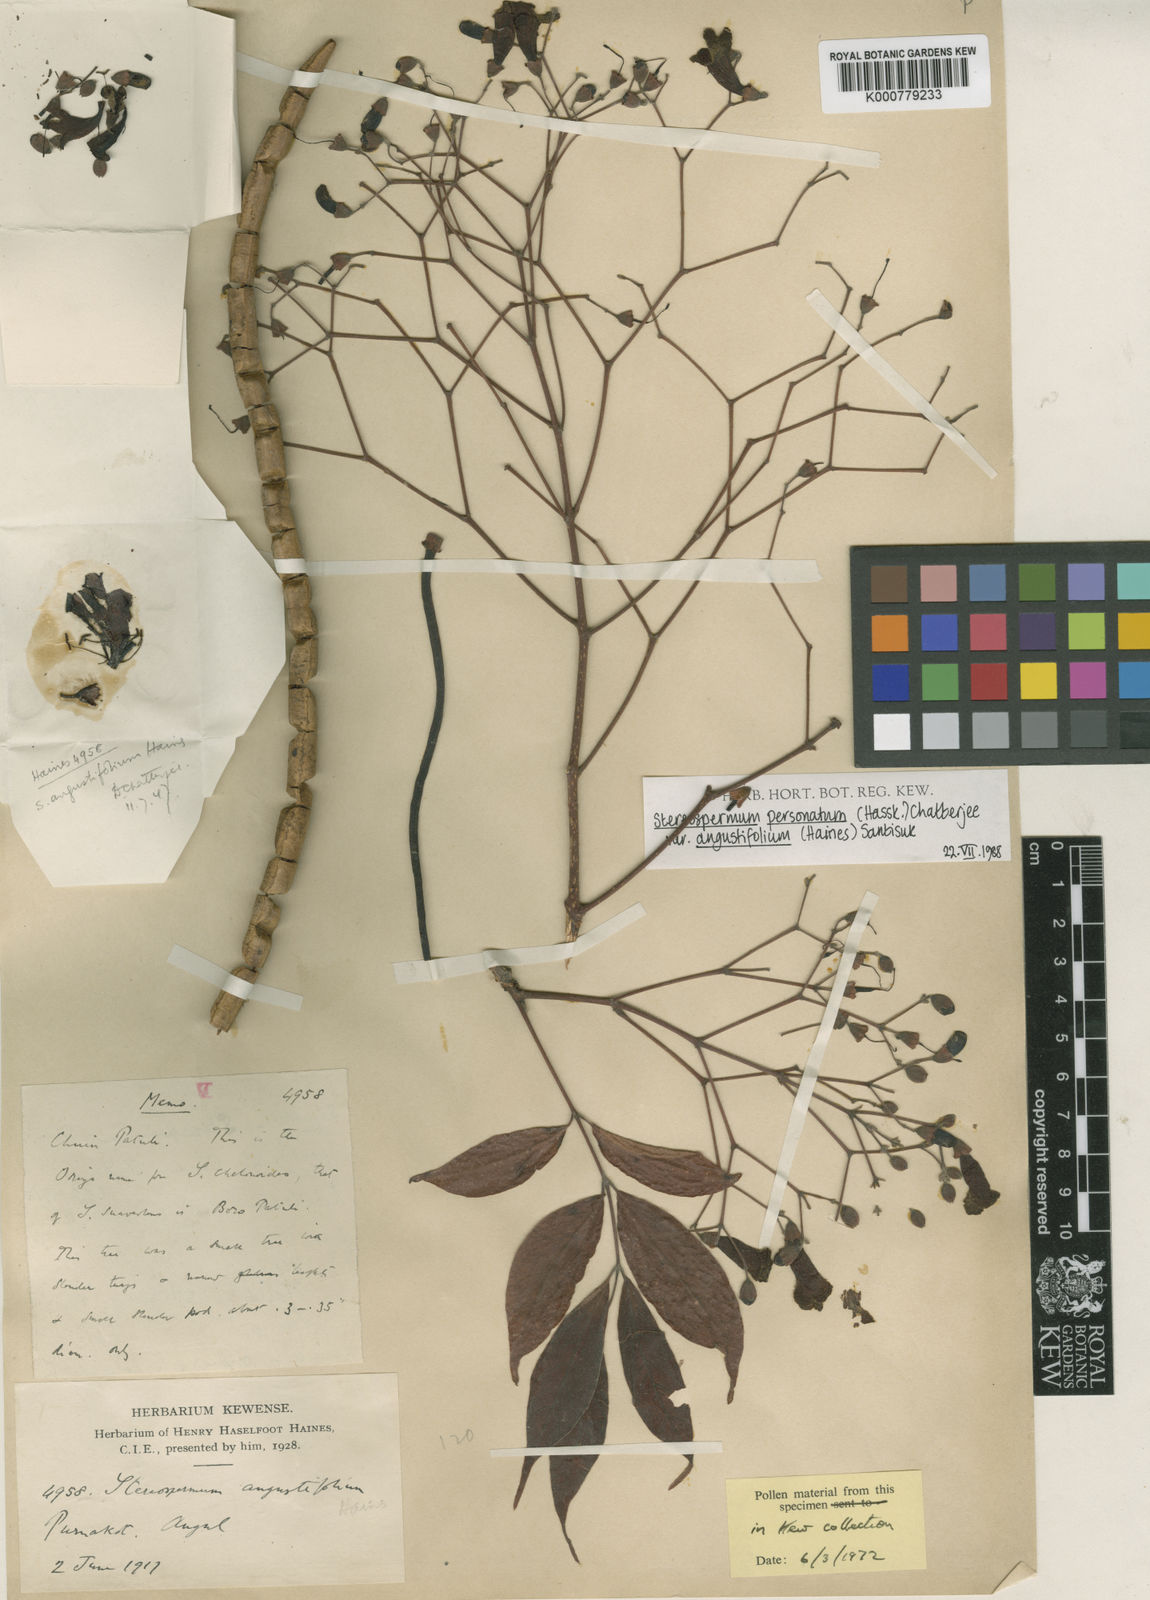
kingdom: Plantae
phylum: Tracheophyta
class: Magnoliopsida
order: Lamiales
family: Bignoniaceae
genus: Stereospermum
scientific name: Stereospermum angustifolium
